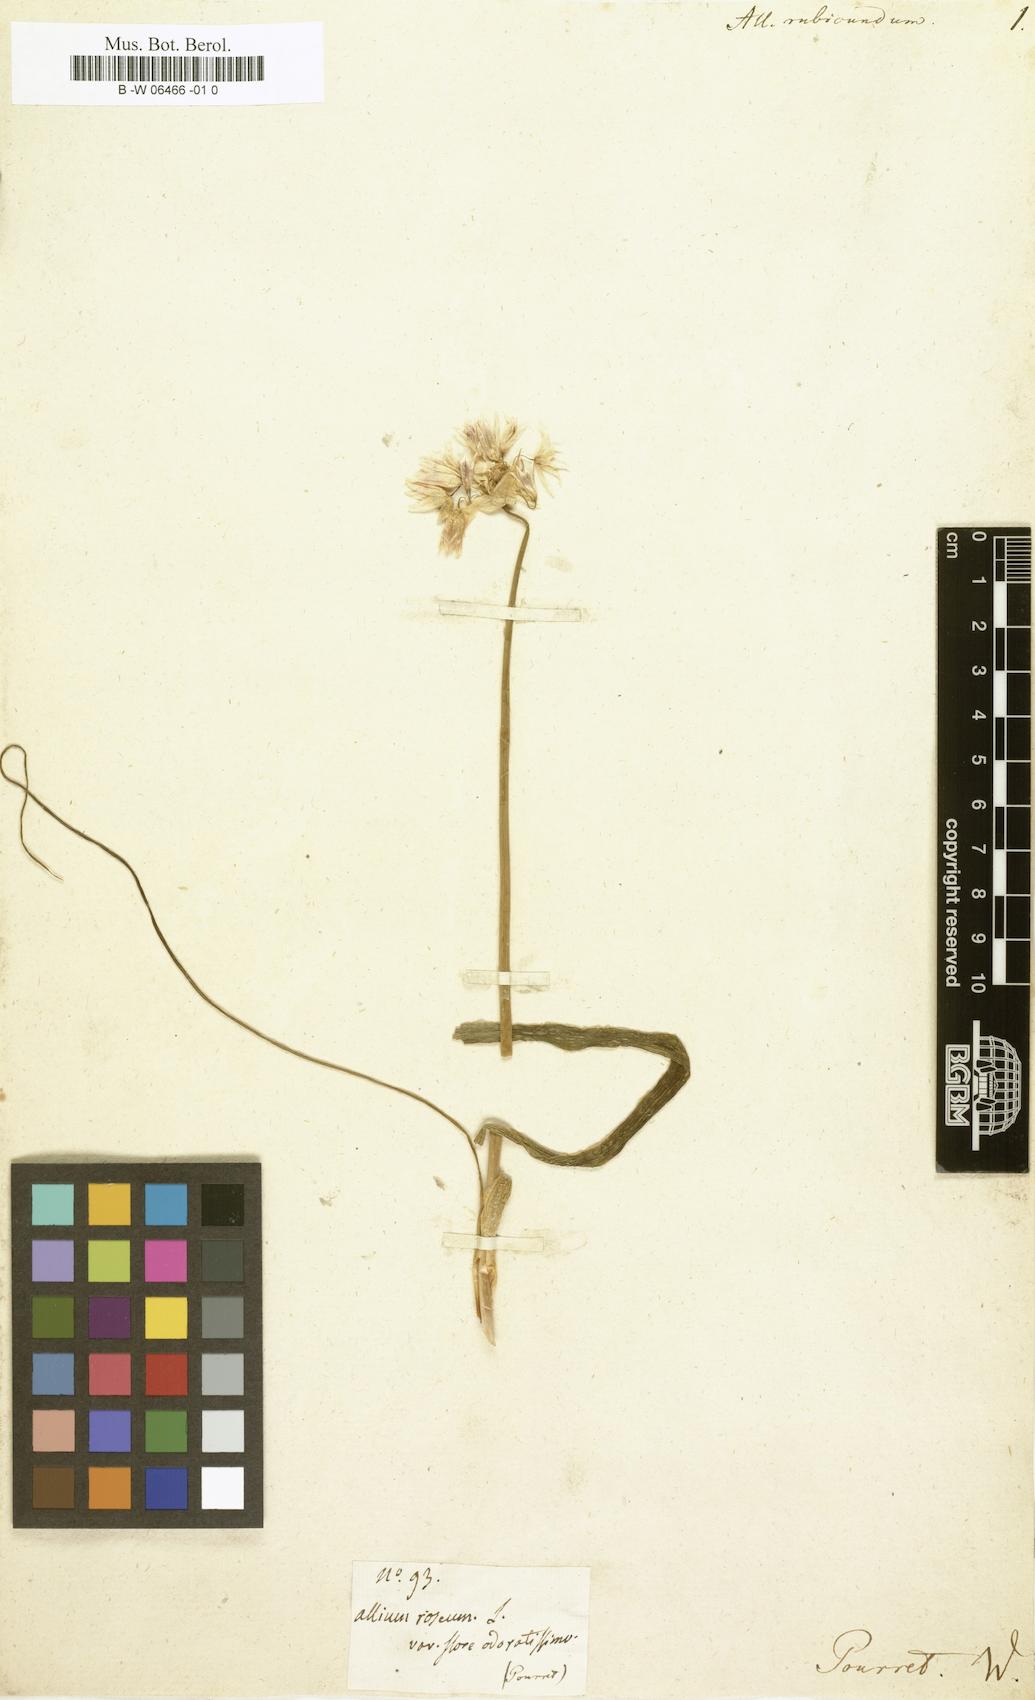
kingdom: Plantae
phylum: Tracheophyta
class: Liliopsida
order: Asparagales
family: Amaryllidaceae
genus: Allium
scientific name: Allium
